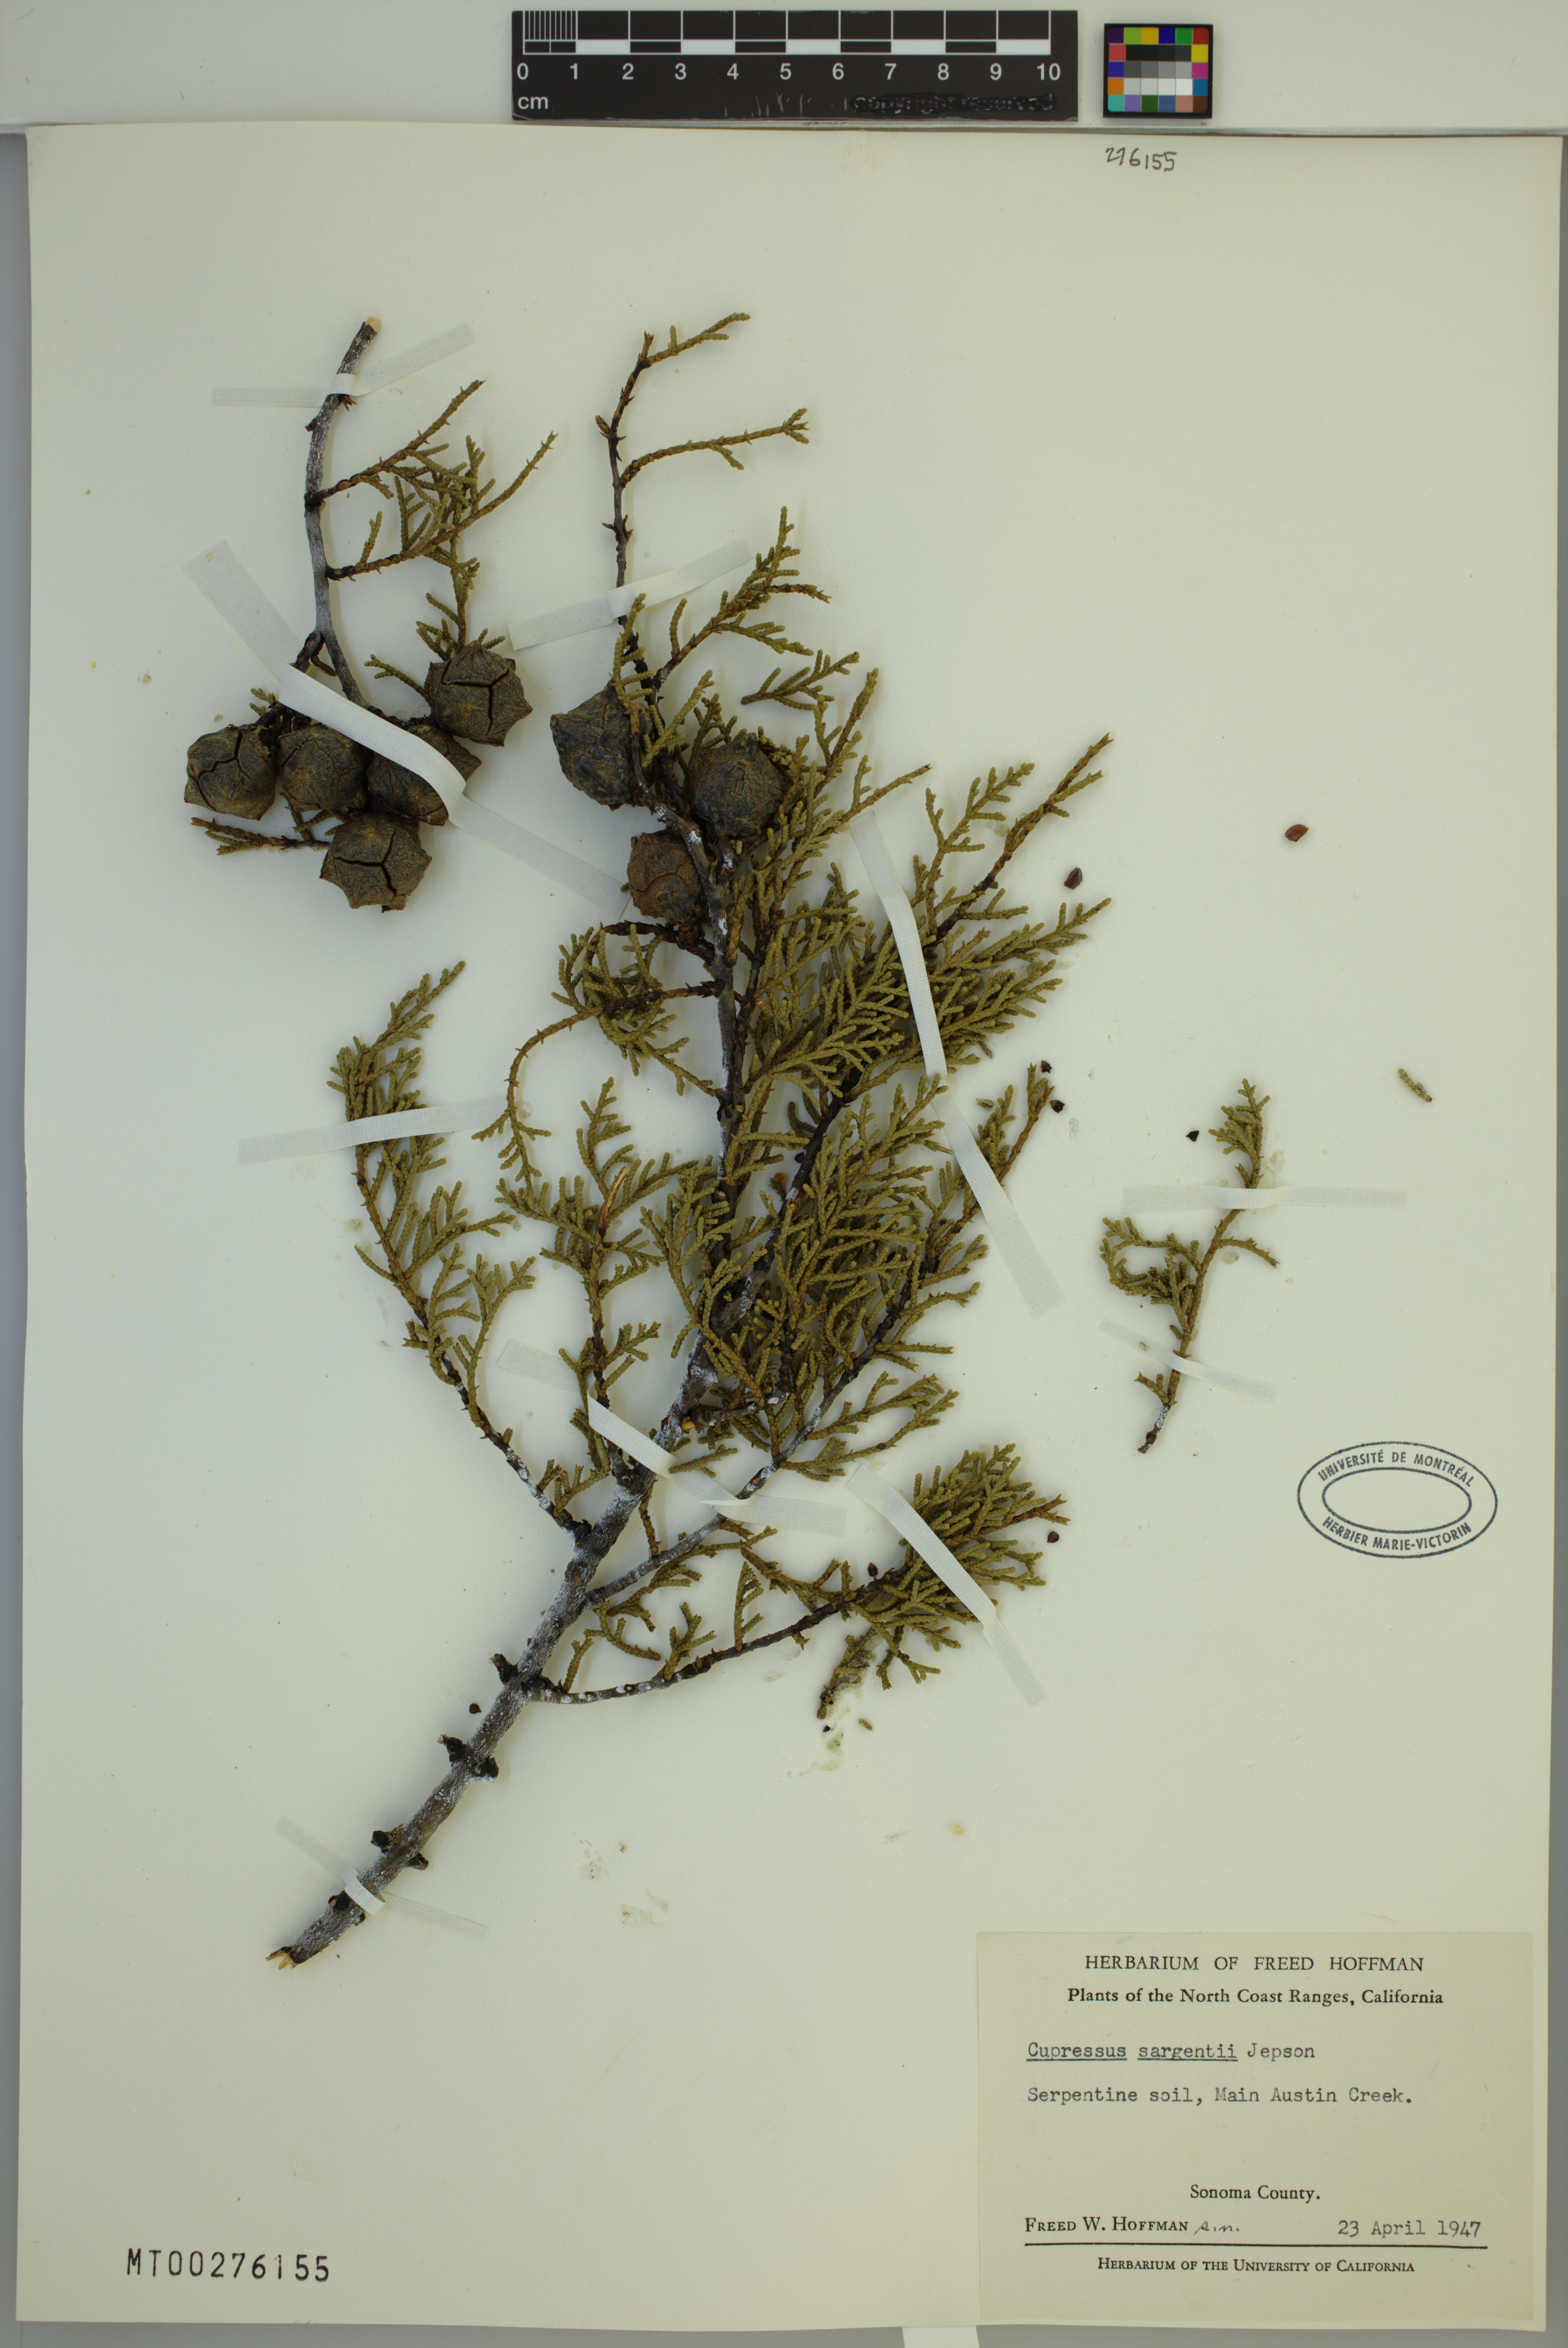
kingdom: Plantae
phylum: Tracheophyta
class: Pinopsida
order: Pinales
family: Cupressaceae
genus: Cupressus
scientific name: Cupressus sargentii
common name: Sargent cypress
